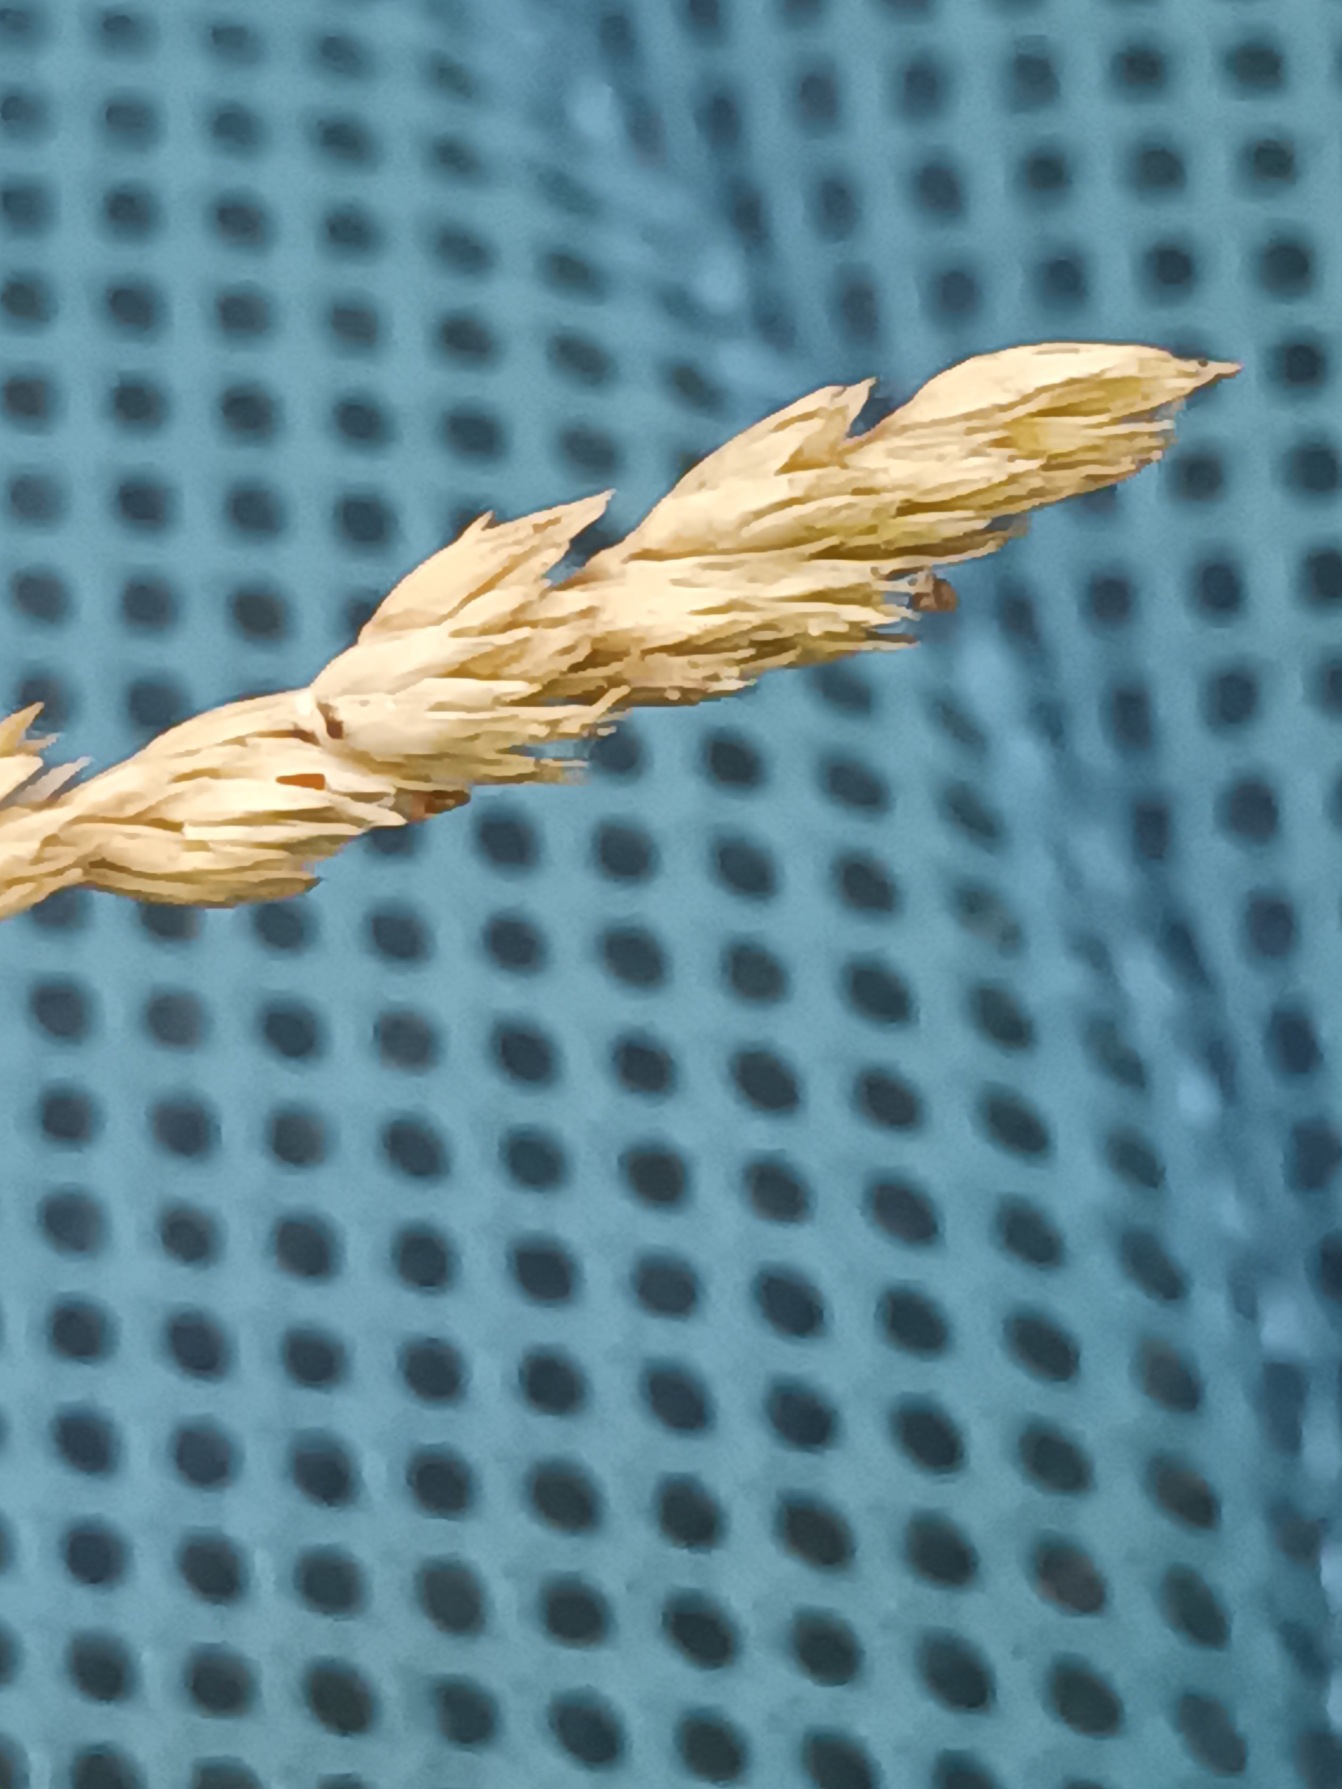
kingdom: Plantae
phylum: Tracheophyta
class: Liliopsida
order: Poales
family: Poaceae
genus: Dactylis
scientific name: Dactylis glomerata
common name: Skov-hundegræs
